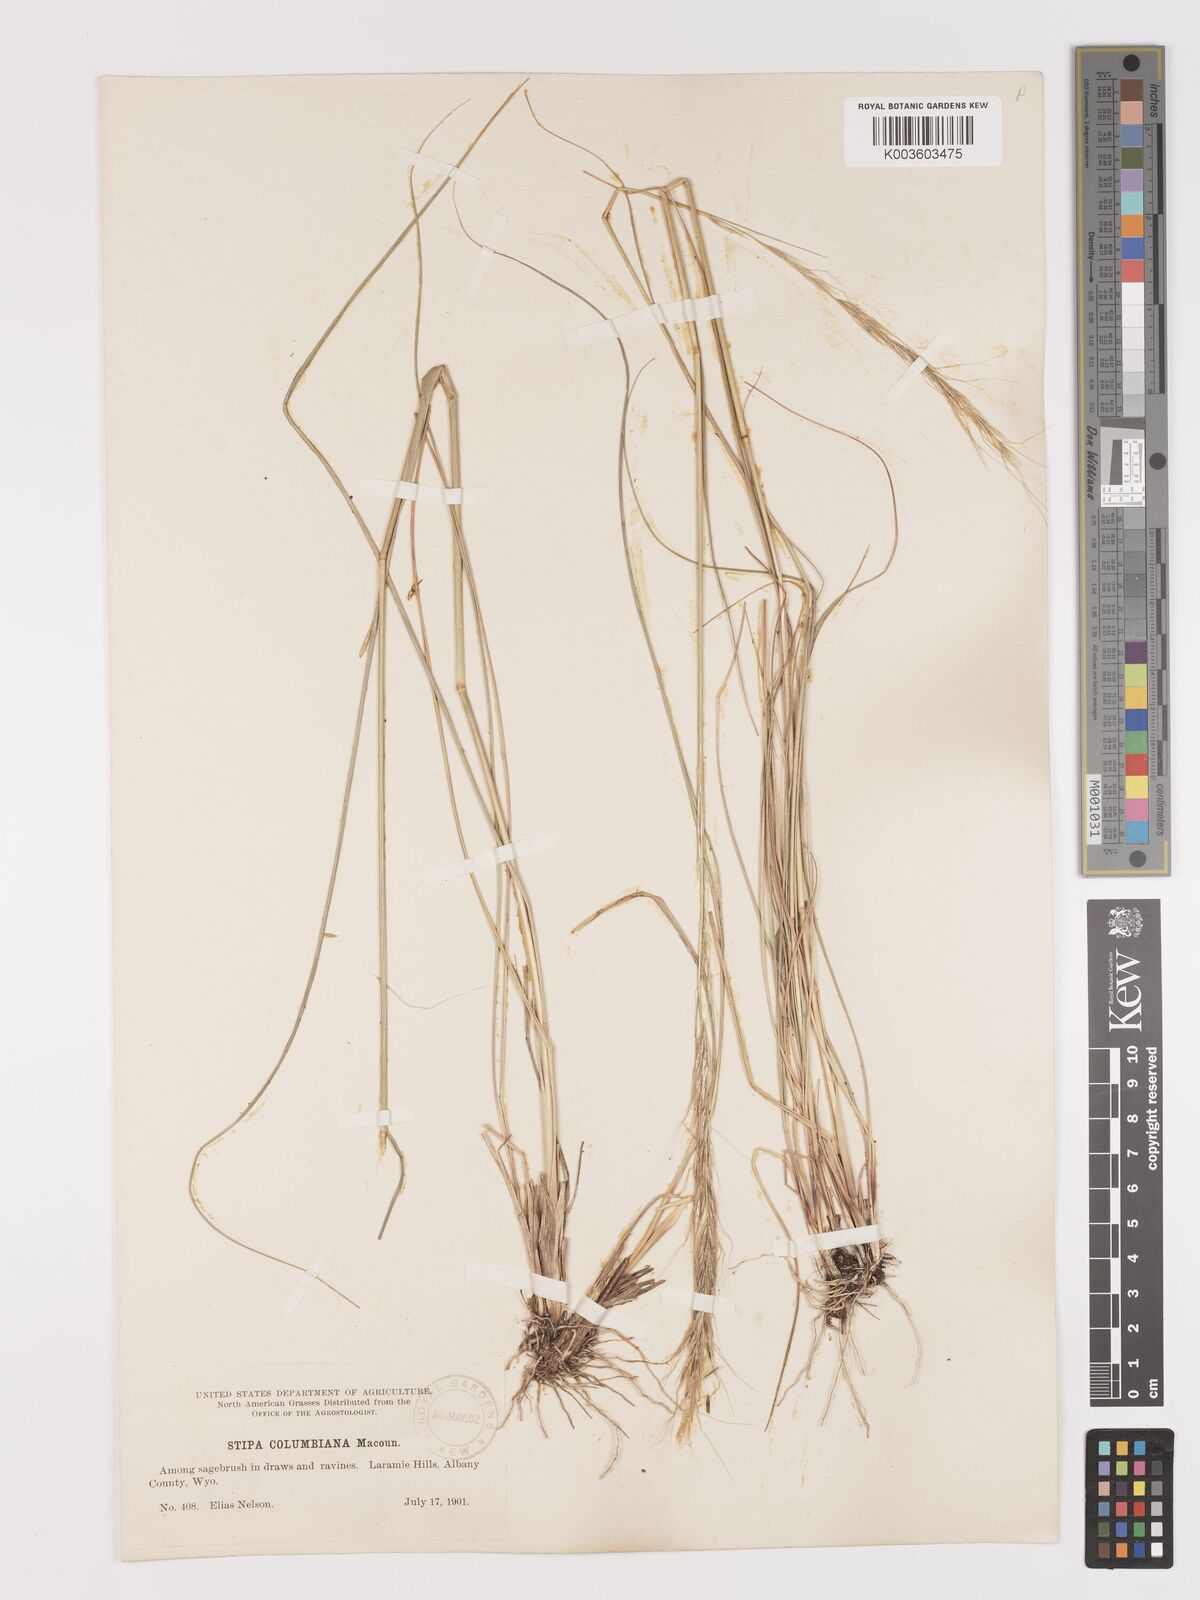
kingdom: Plantae
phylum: Tracheophyta
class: Liliopsida
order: Poales
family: Poaceae
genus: Eriocoma
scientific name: Eriocoma nelsonii
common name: Nelson's needlegrass
